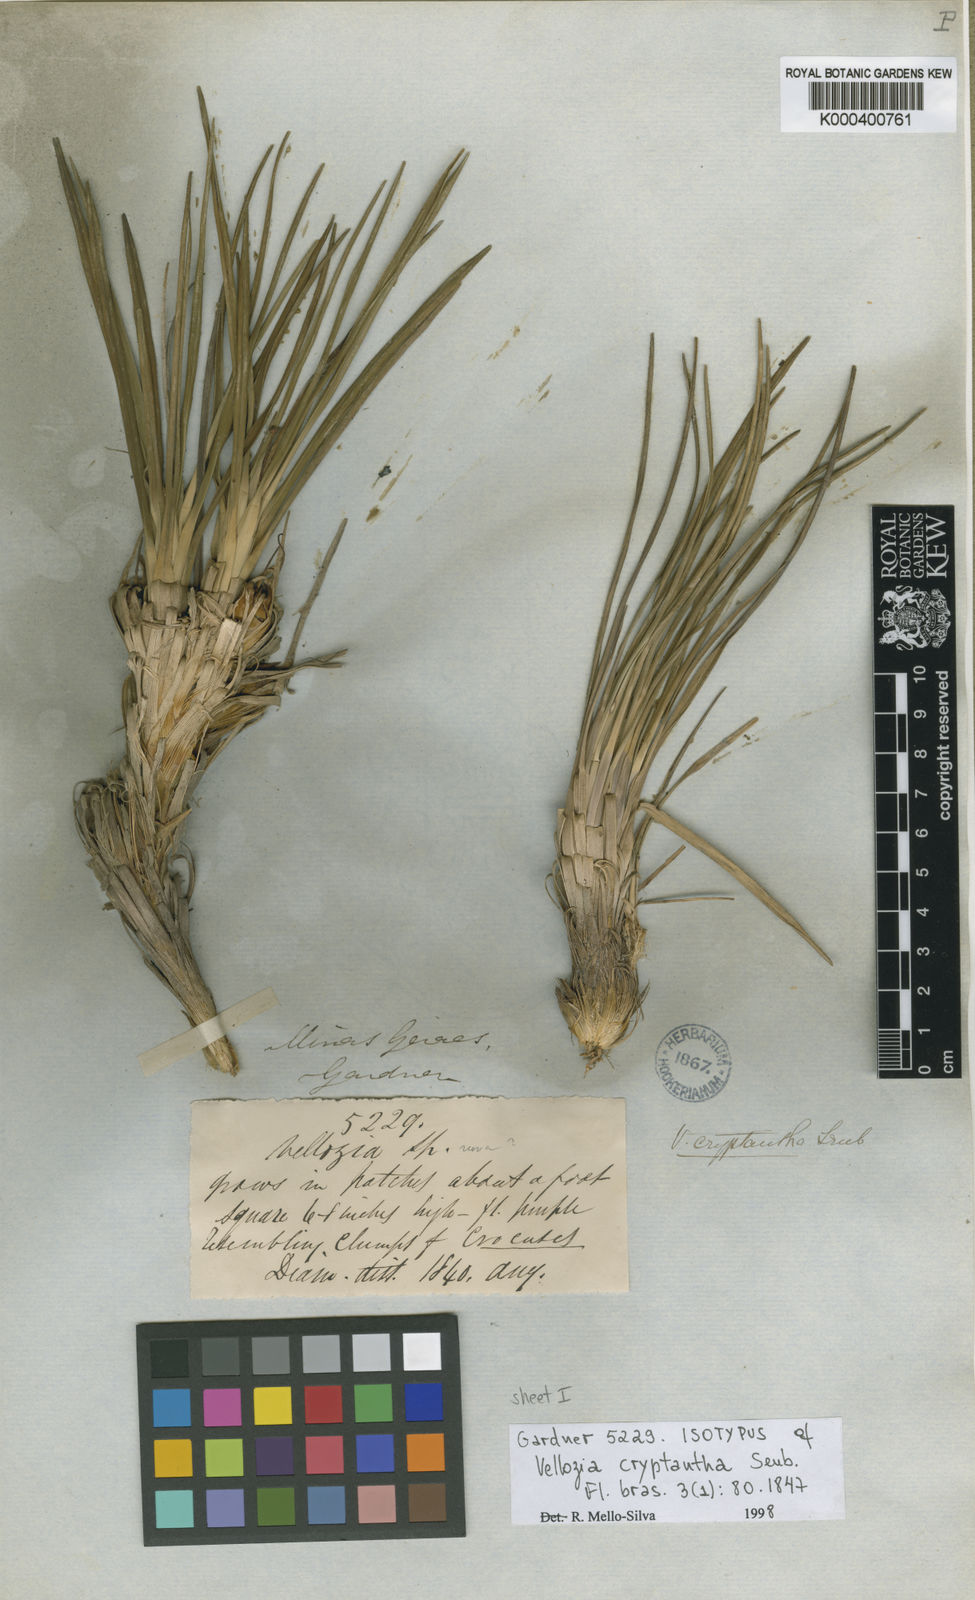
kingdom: Plantae
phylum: Tracheophyta
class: Liliopsida
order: Pandanales
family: Velloziaceae
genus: Vellozia
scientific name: Vellozia cryptantha
